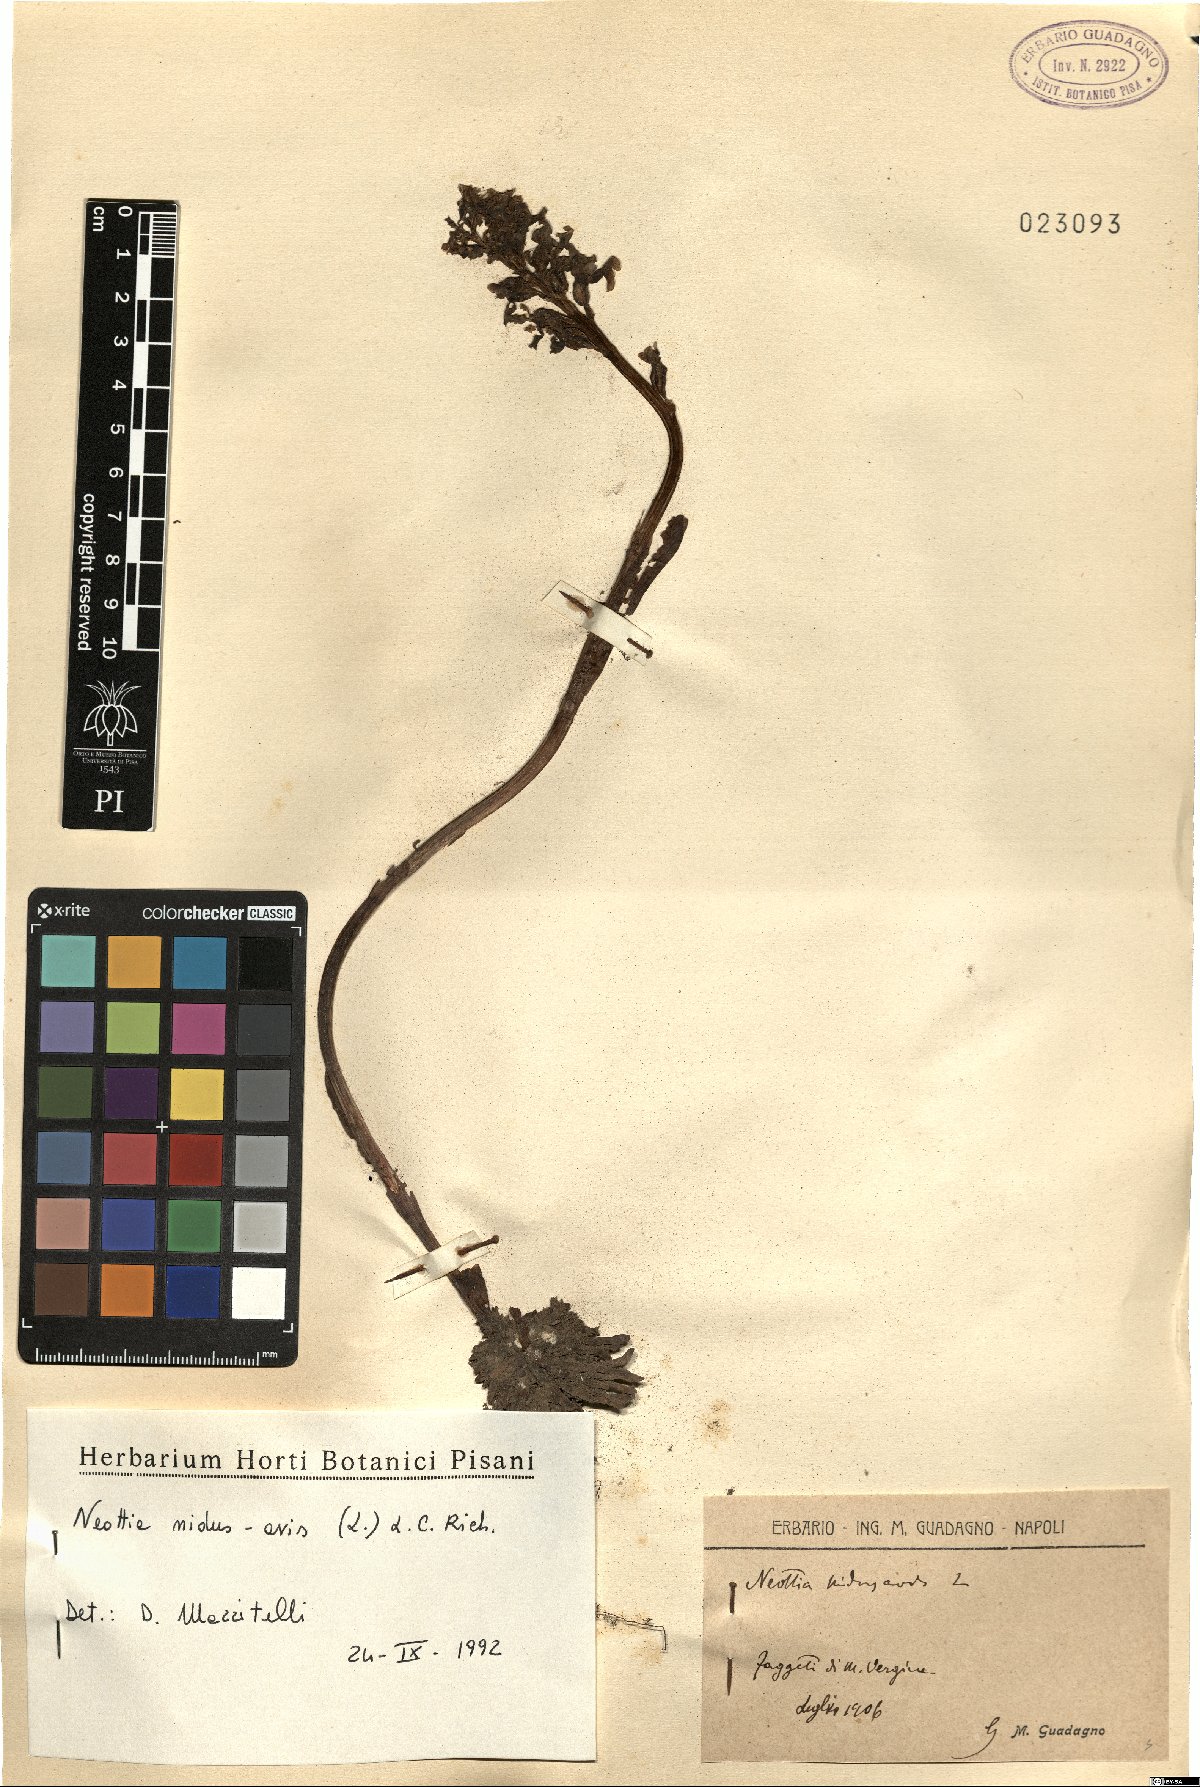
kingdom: Plantae
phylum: Tracheophyta
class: Liliopsida
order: Asparagales
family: Orchidaceae
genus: Neottia
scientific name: Neottia nidus-avis
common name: Bird's-nest orchid
